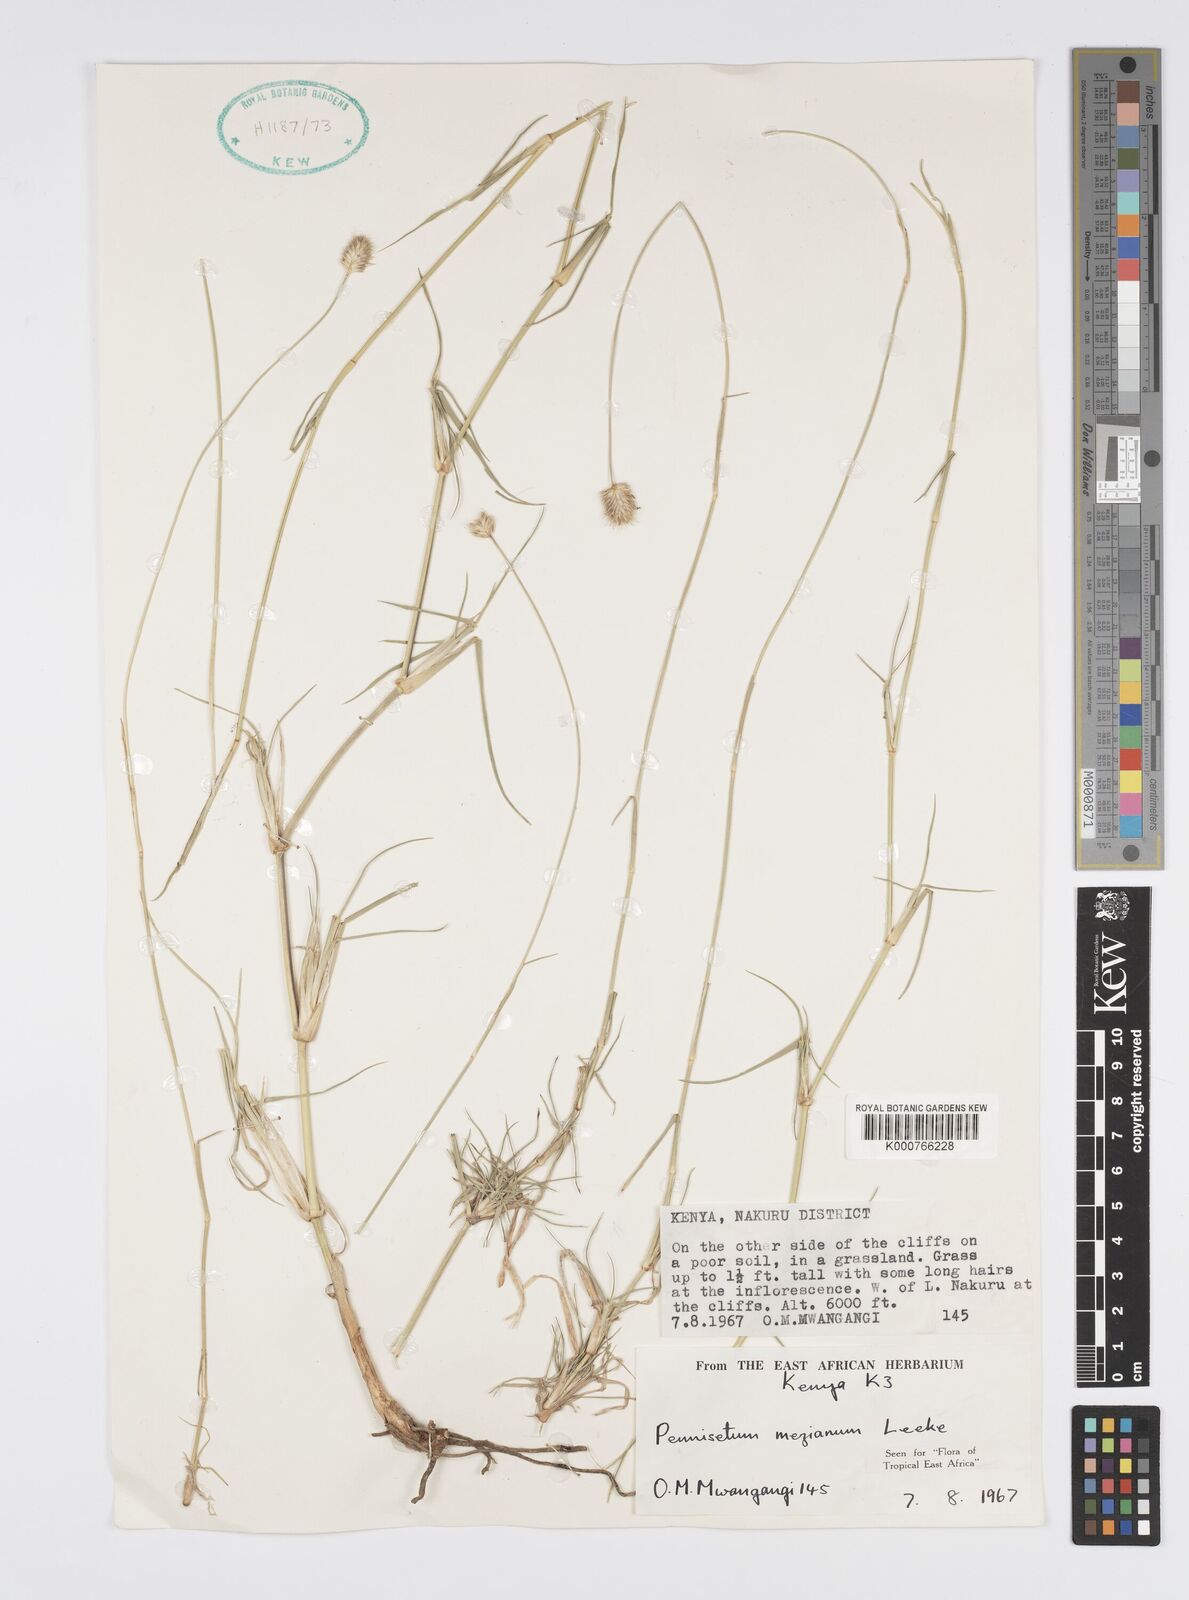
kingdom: Plantae
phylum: Tracheophyta
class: Liliopsida
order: Poales
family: Poaceae
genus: Cenchrus
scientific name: Cenchrus mezianus
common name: Bamboo grass
